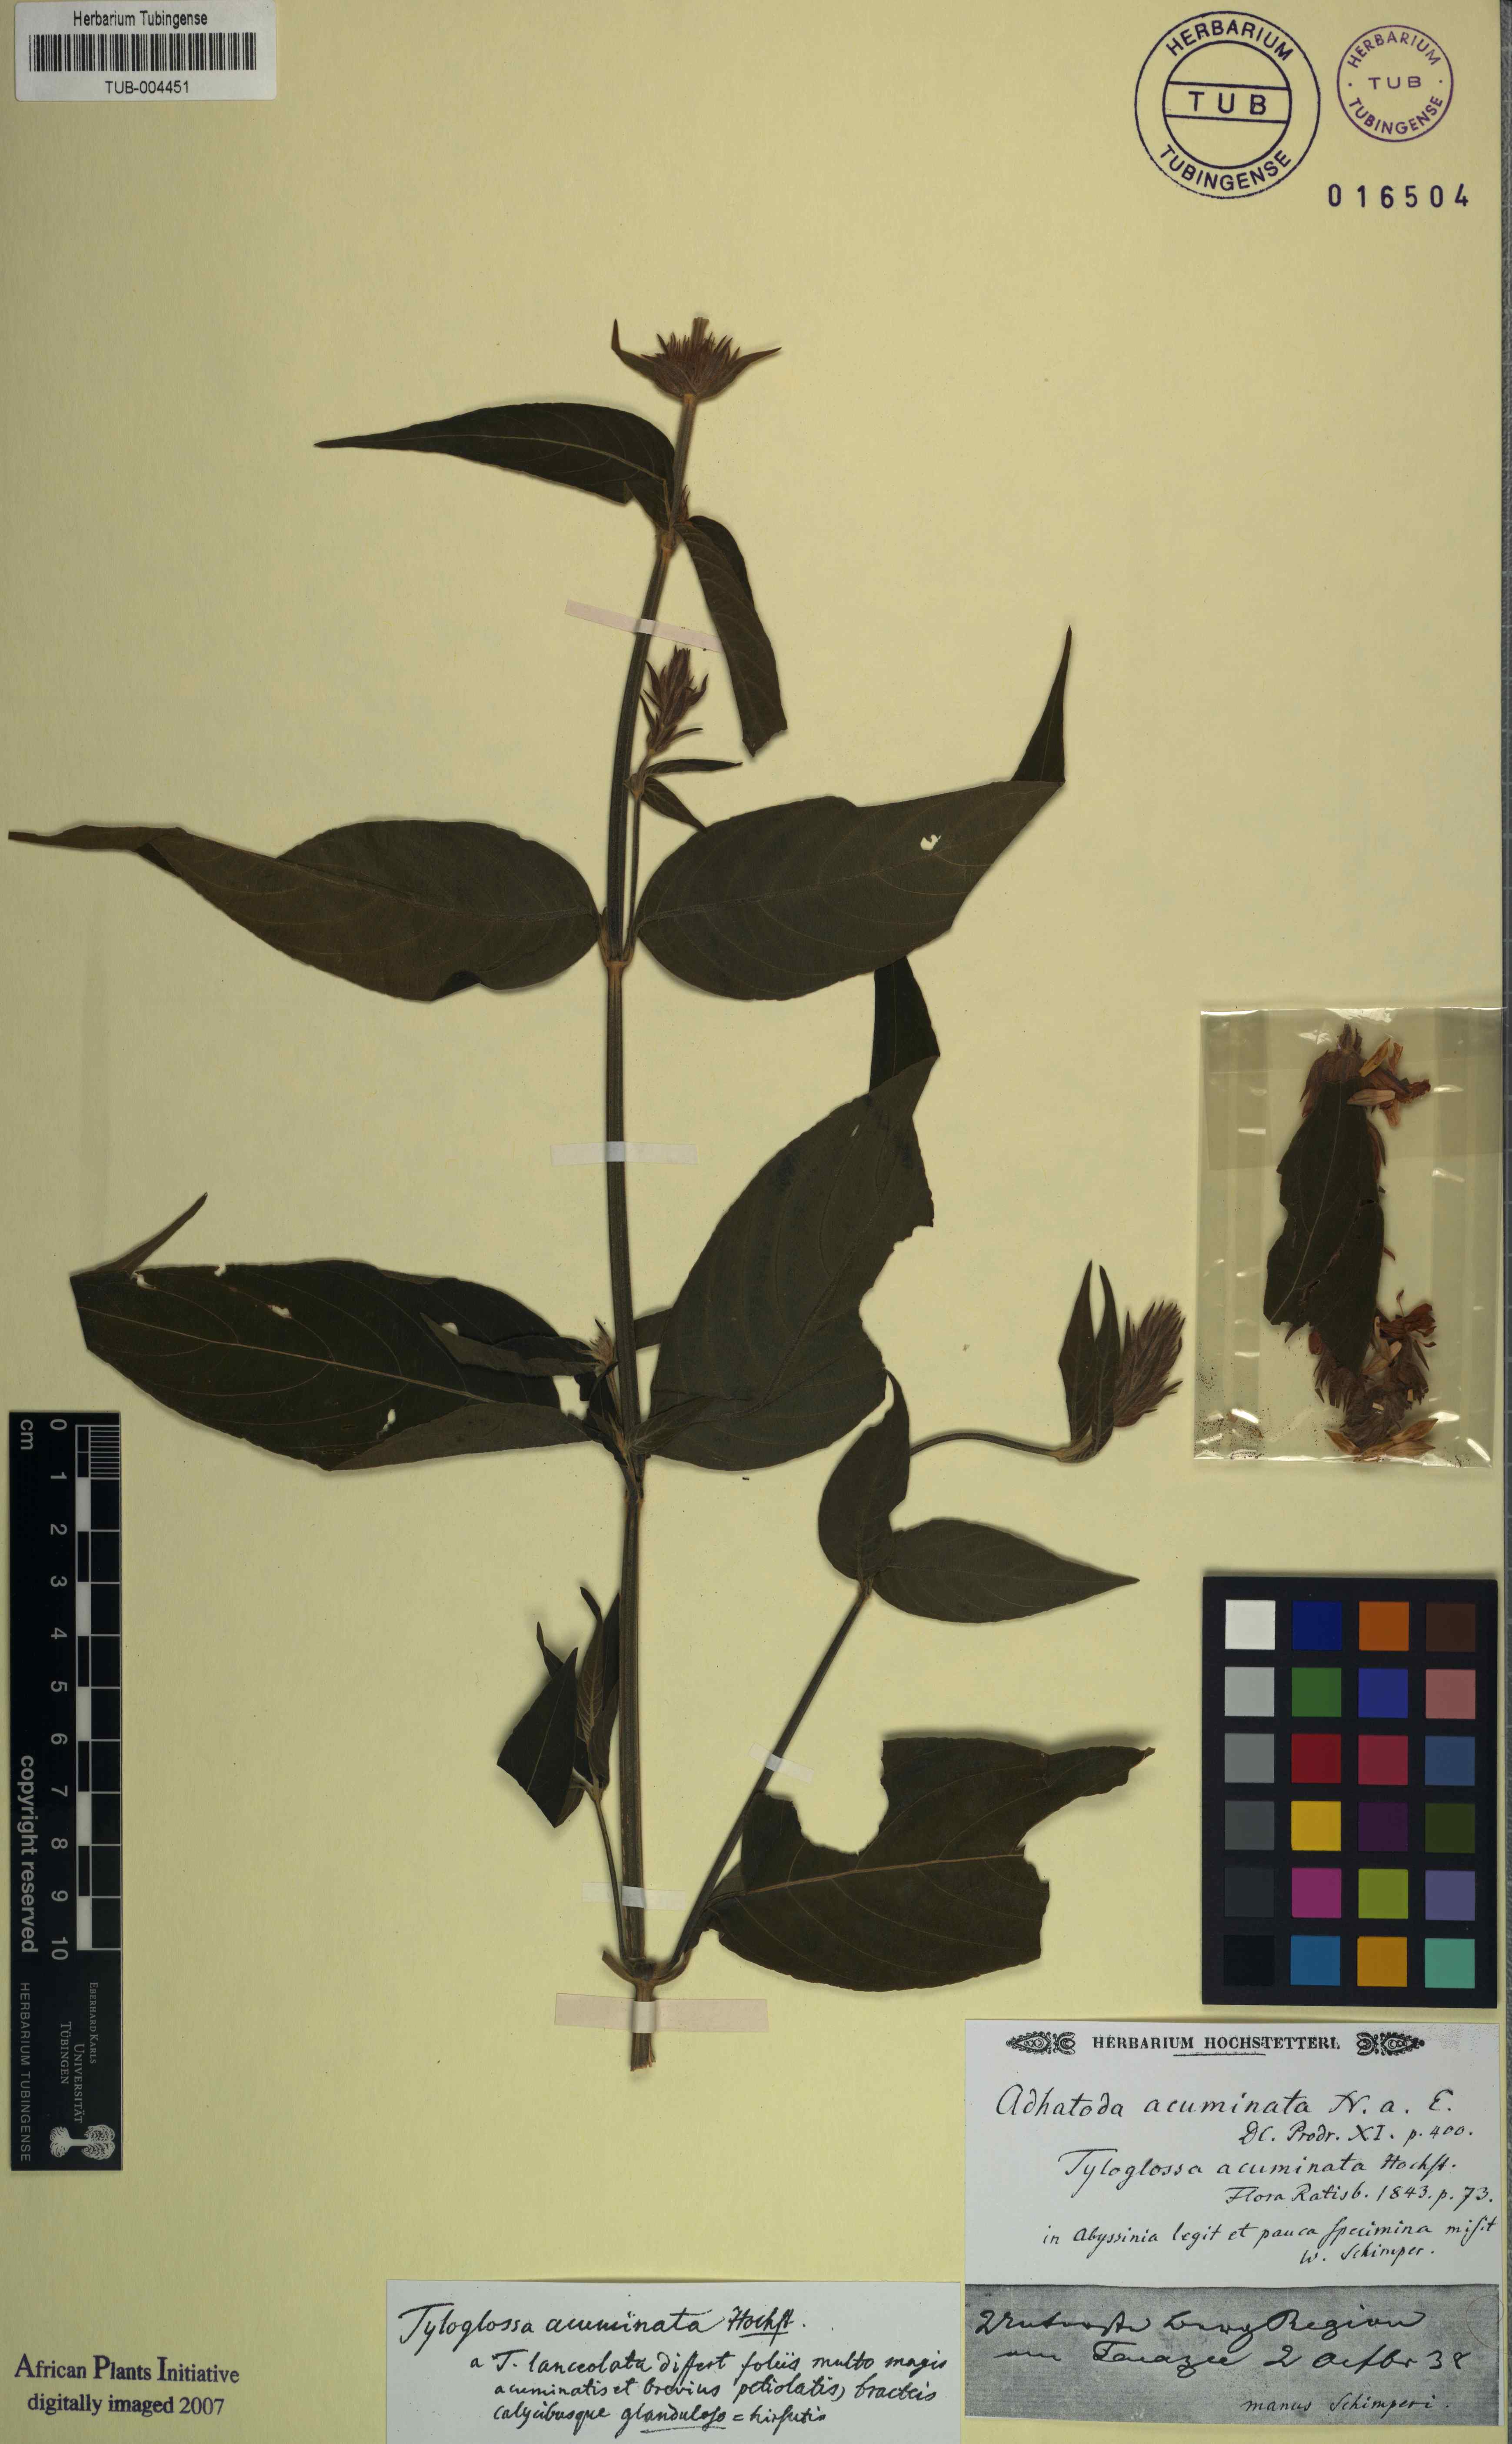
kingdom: Plantae
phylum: Tracheophyta
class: Magnoliopsida
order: Lamiales
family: Acanthaceae
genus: Justicia
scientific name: Justicia flava
